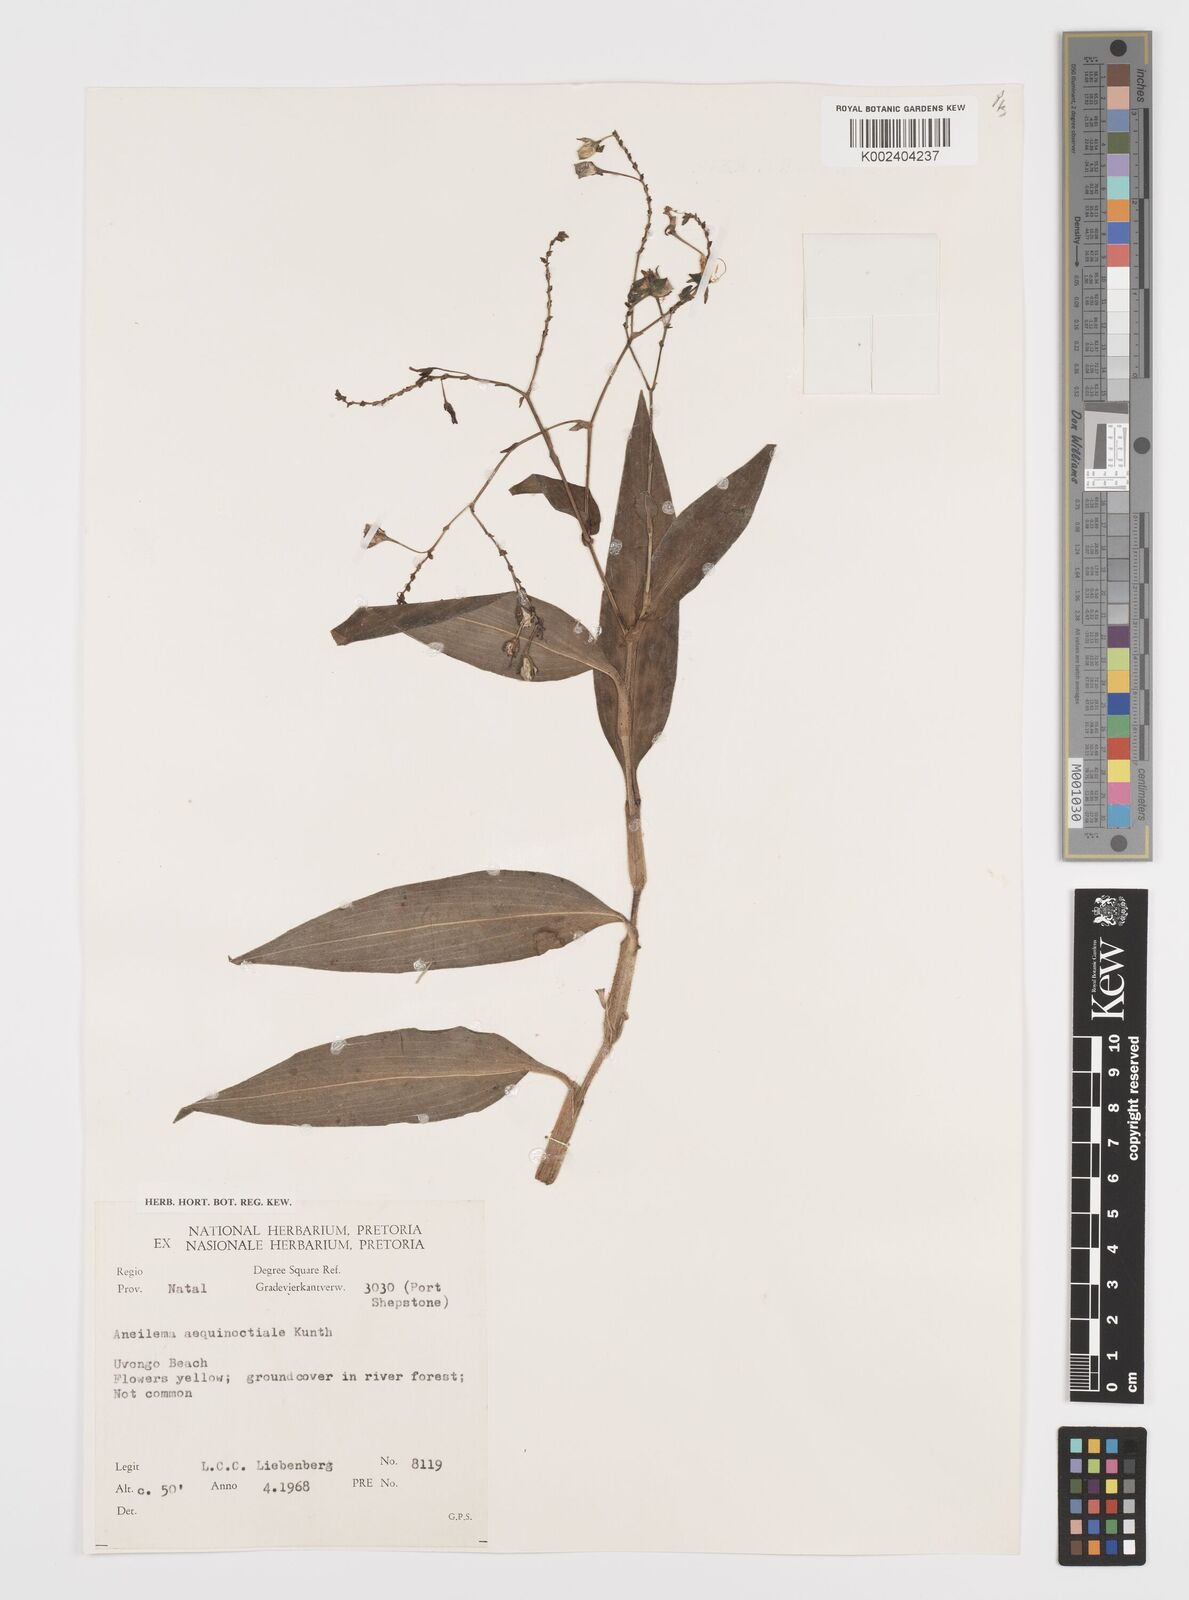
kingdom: Plantae
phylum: Tracheophyta
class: Liliopsida
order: Commelinales
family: Commelinaceae
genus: Aneilema
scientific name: Aneilema aequinoctiale
